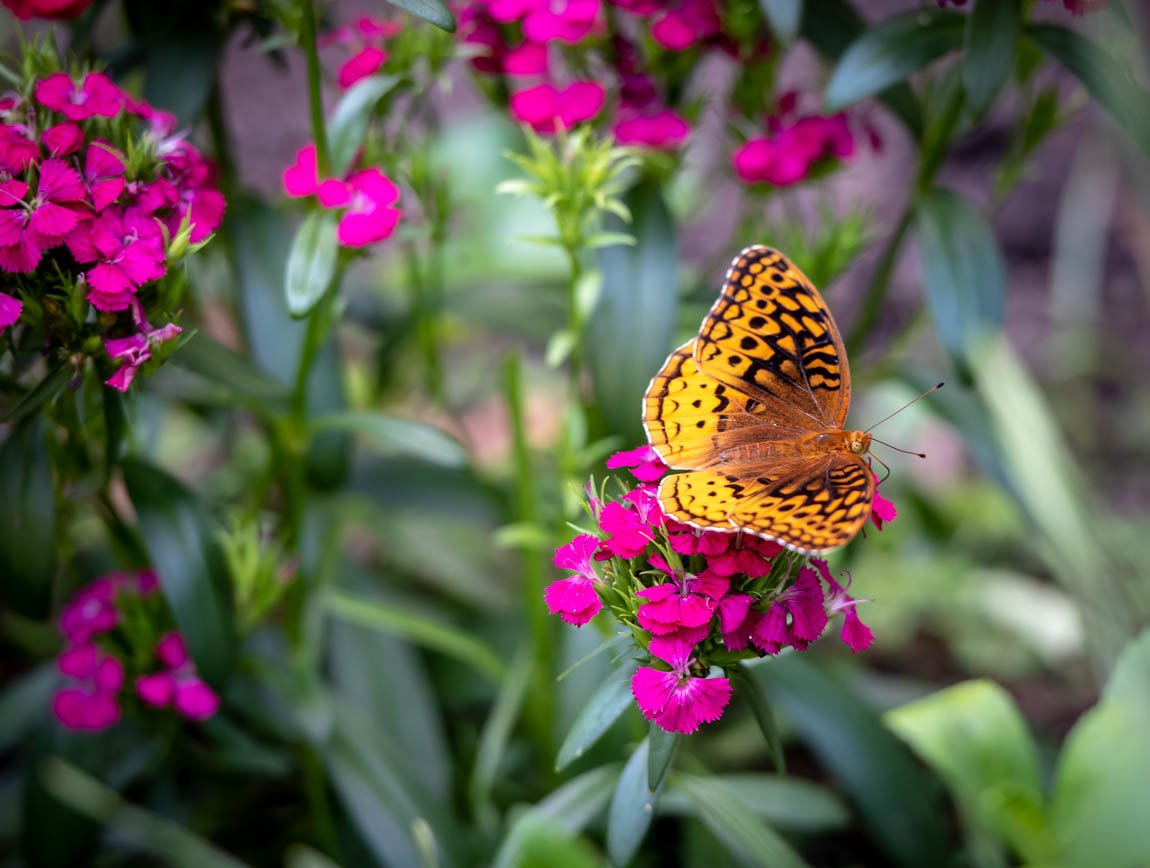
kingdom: Animalia
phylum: Arthropoda
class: Insecta
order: Lepidoptera
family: Nymphalidae
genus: Euptoieta
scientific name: Euptoieta claudia
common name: Variegated Fritillary
